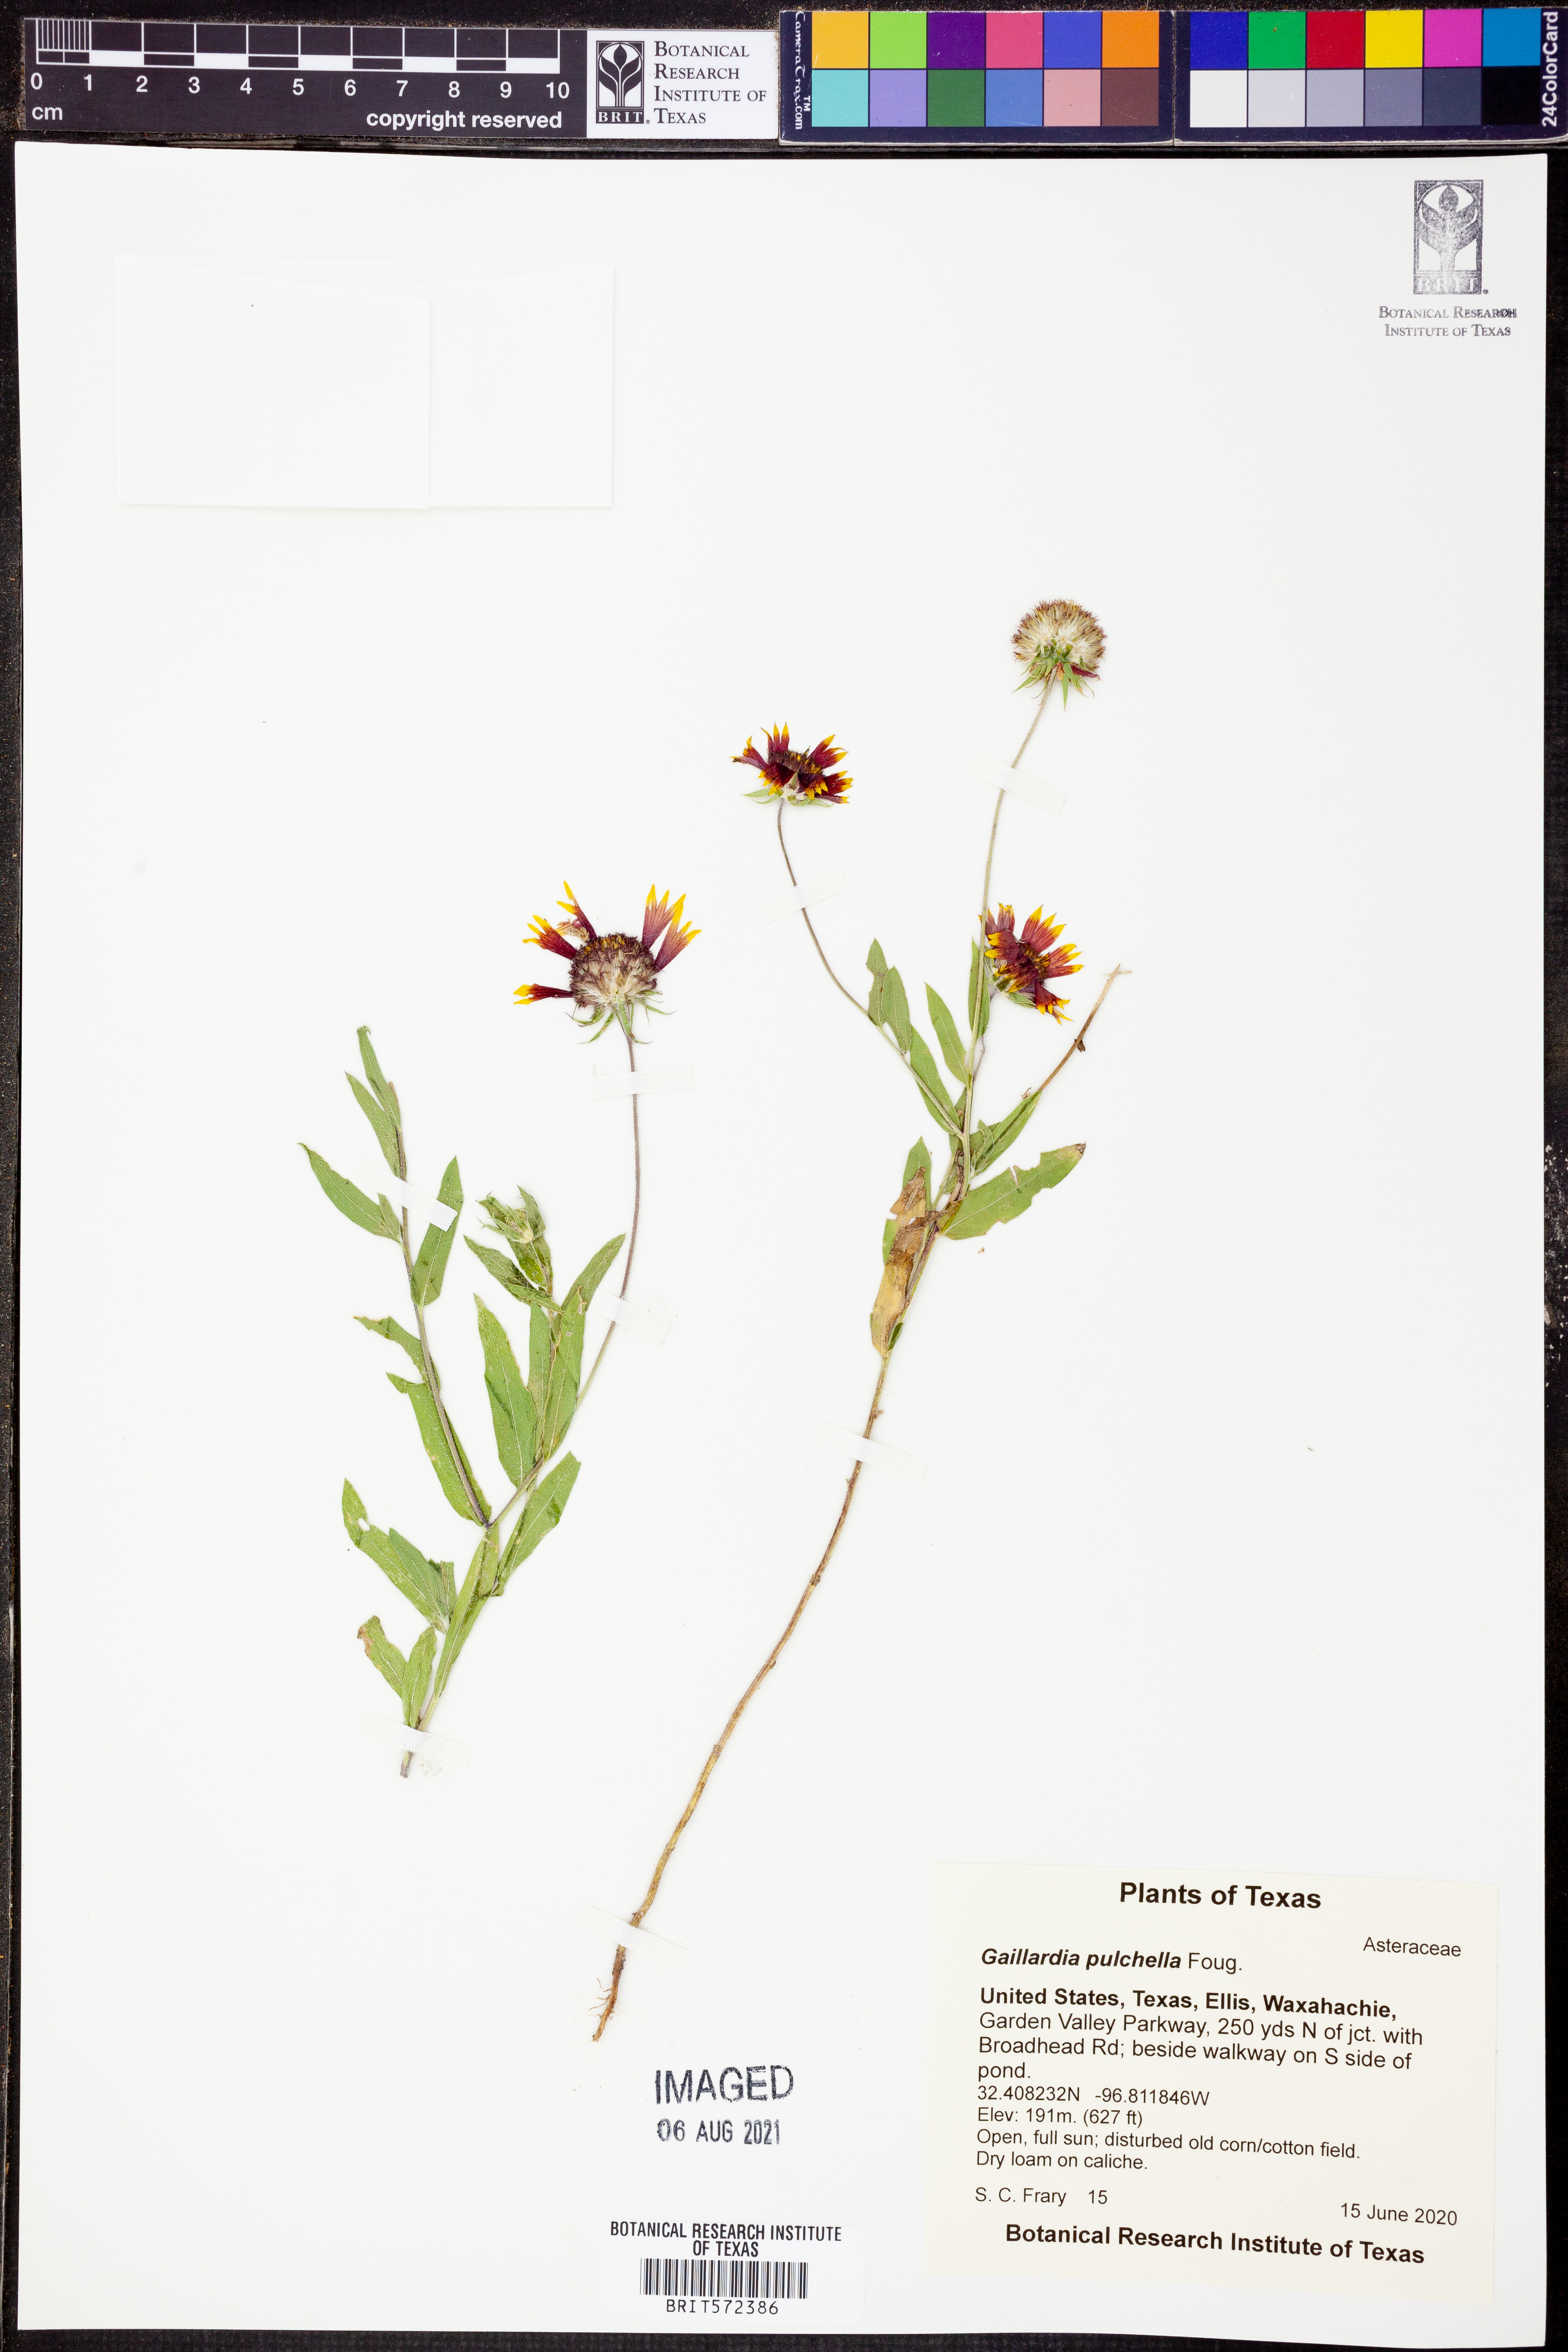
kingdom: Plantae
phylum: Tracheophyta
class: Magnoliopsida
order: Asterales
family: Asteraceae
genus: Gaillardia
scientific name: Gaillardia pulchella
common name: Firewheel
